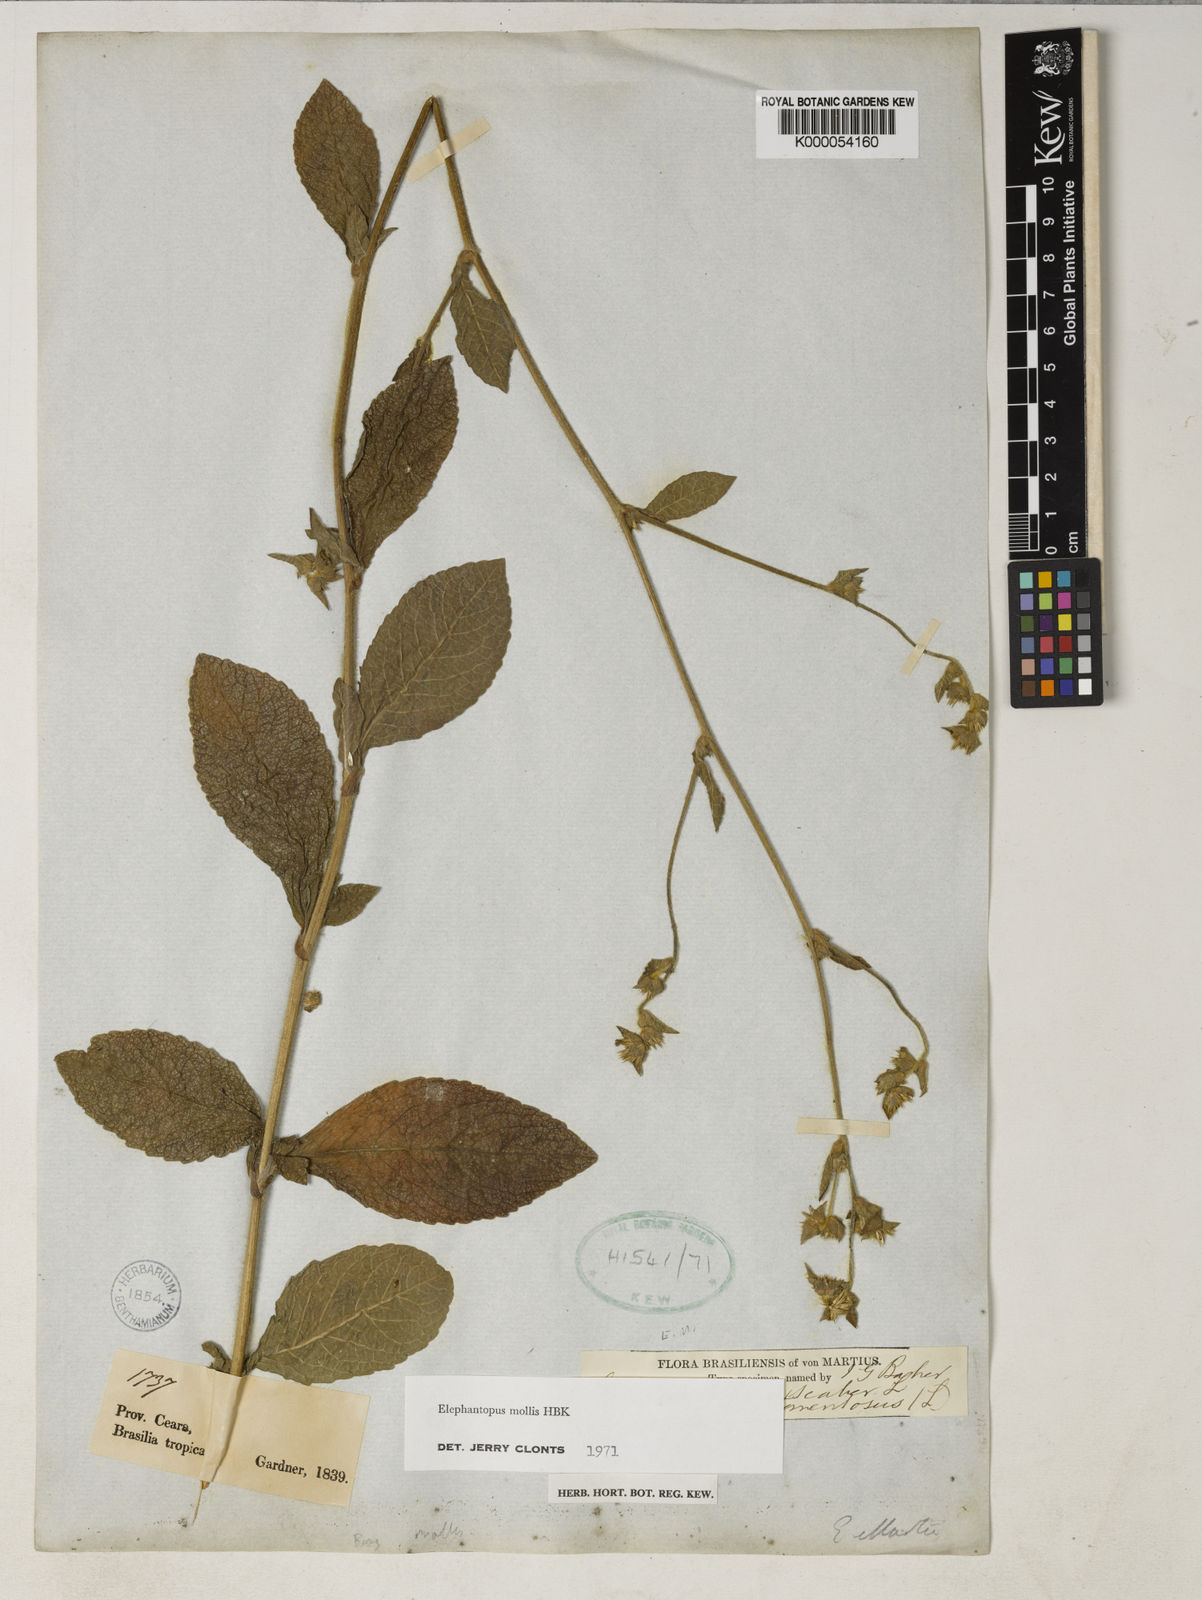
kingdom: Plantae
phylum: Tracheophyta
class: Magnoliopsida
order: Asterales
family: Asteraceae
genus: Elephantopus
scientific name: Elephantopus mollis
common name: Soft elephantsfoot
